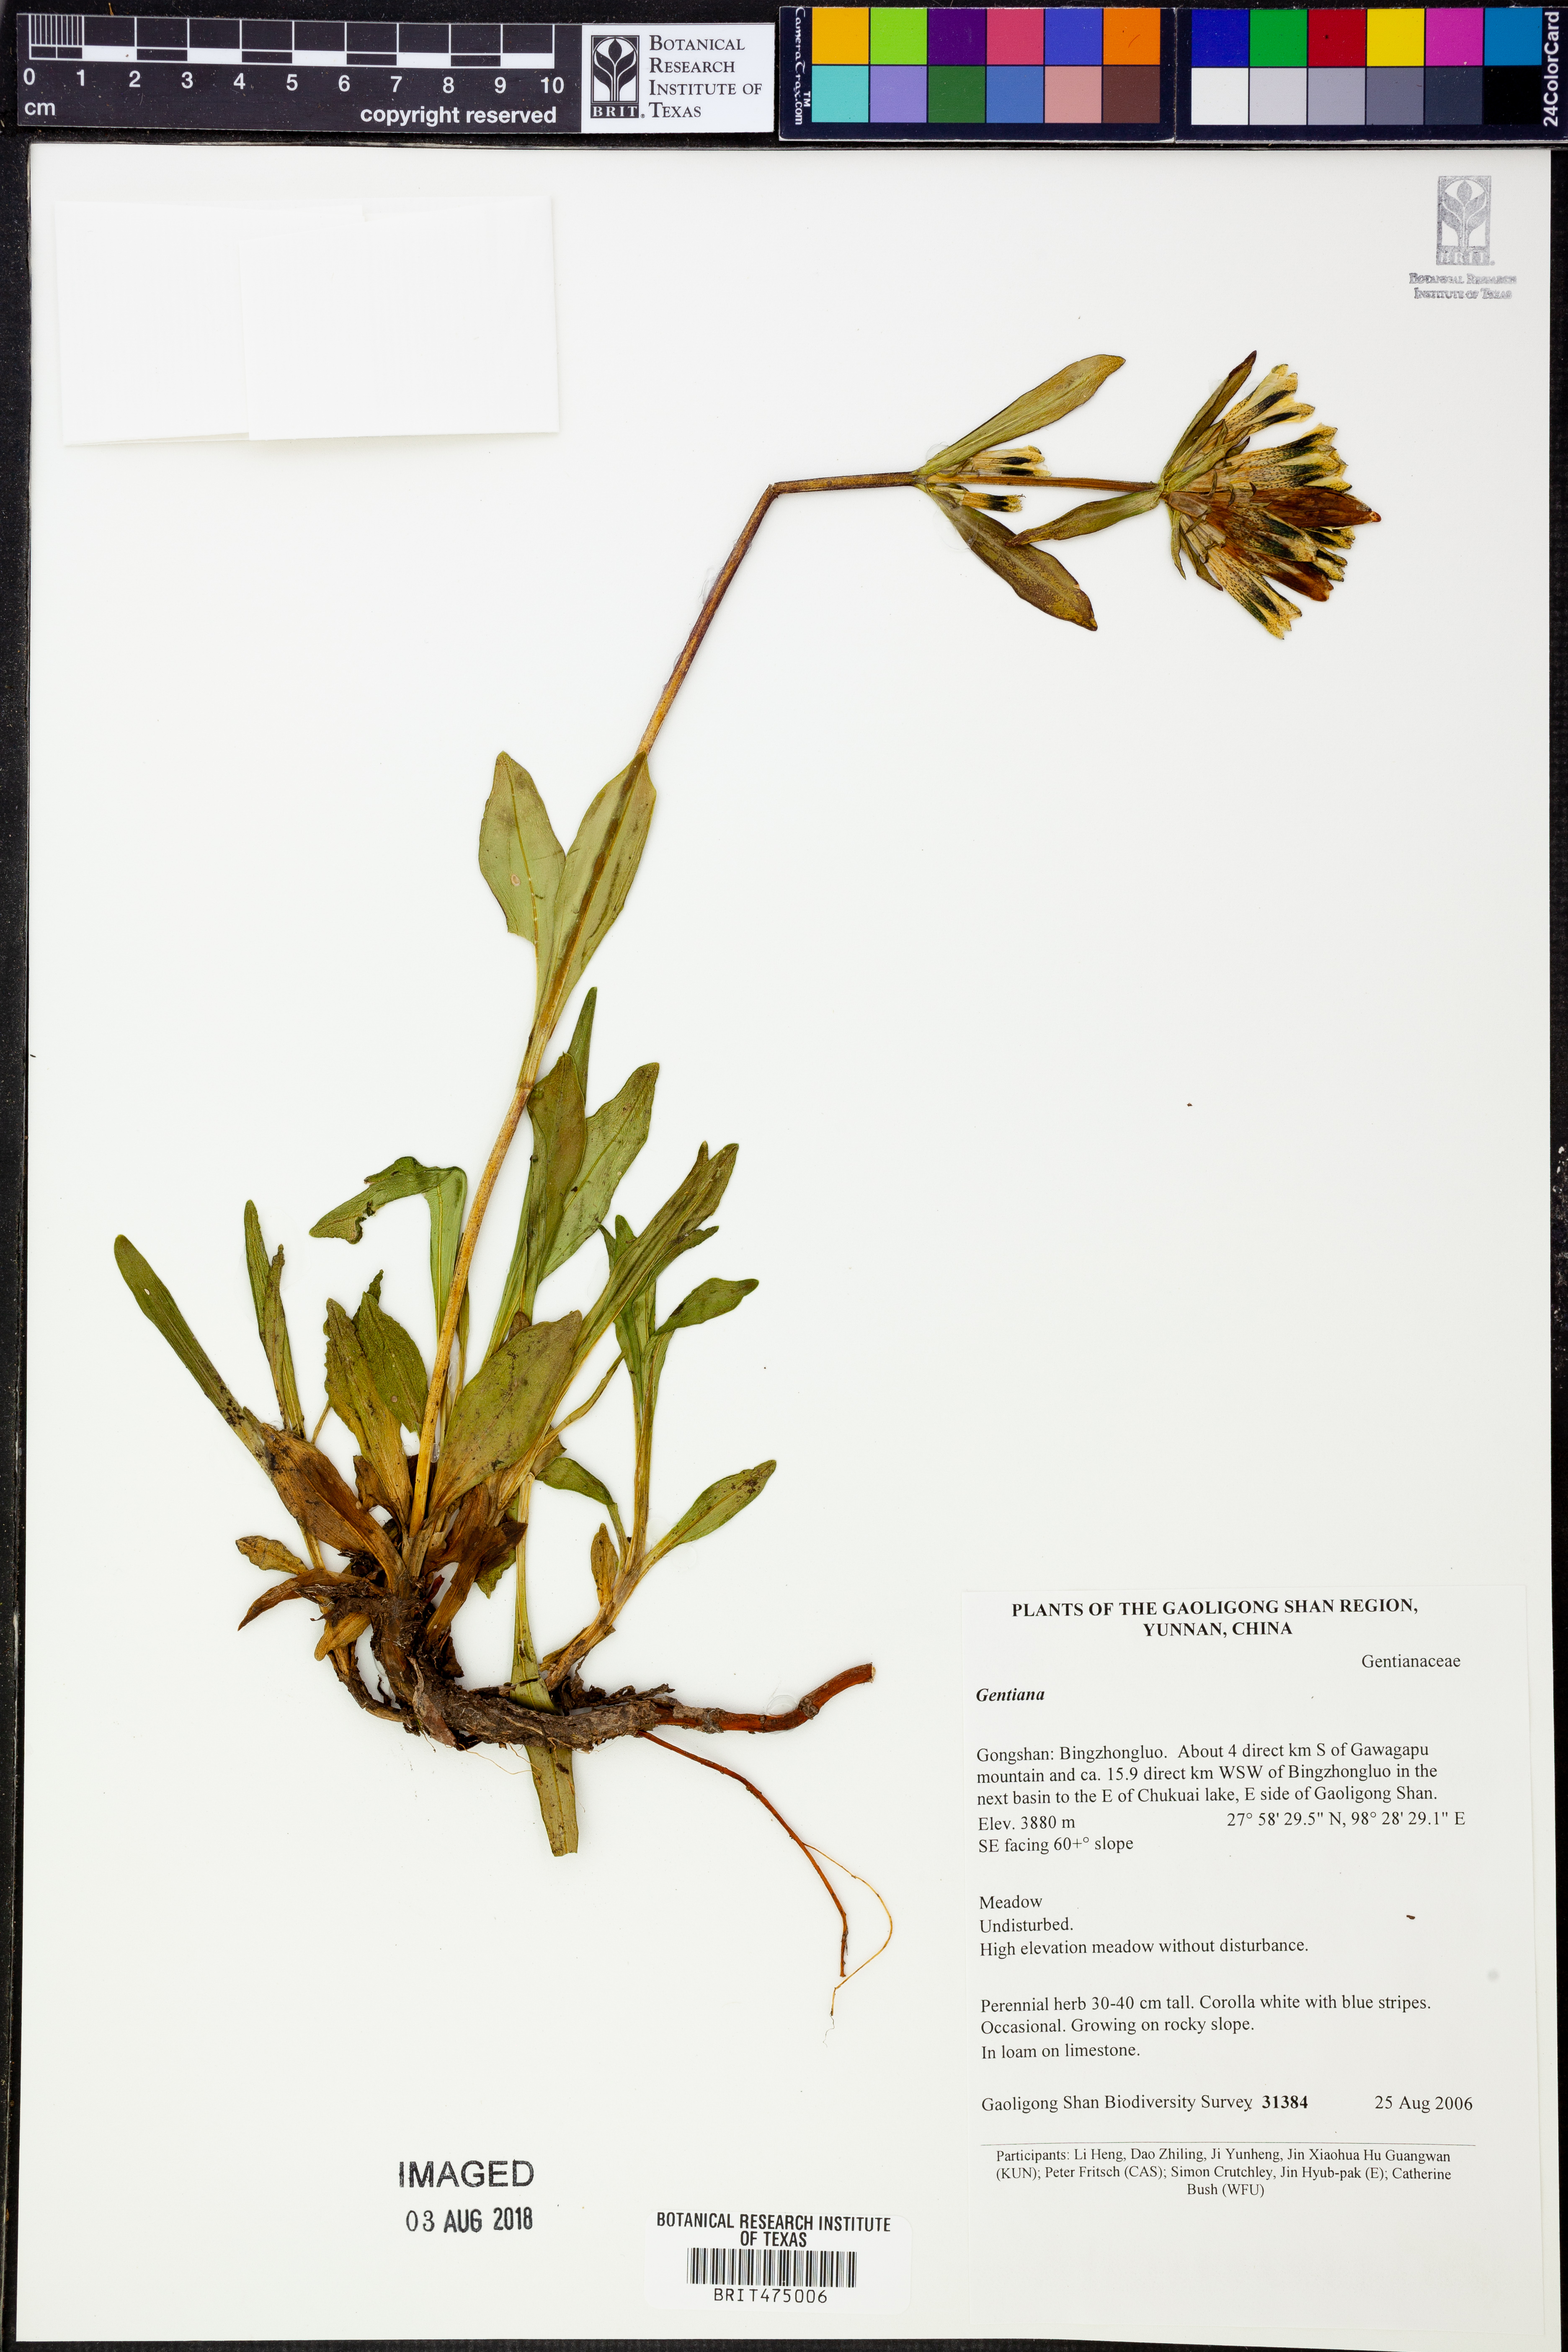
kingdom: Plantae
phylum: Tracheophyta
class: Magnoliopsida
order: Gentianales
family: Gentianaceae
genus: Gentiana
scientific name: Gentiana
